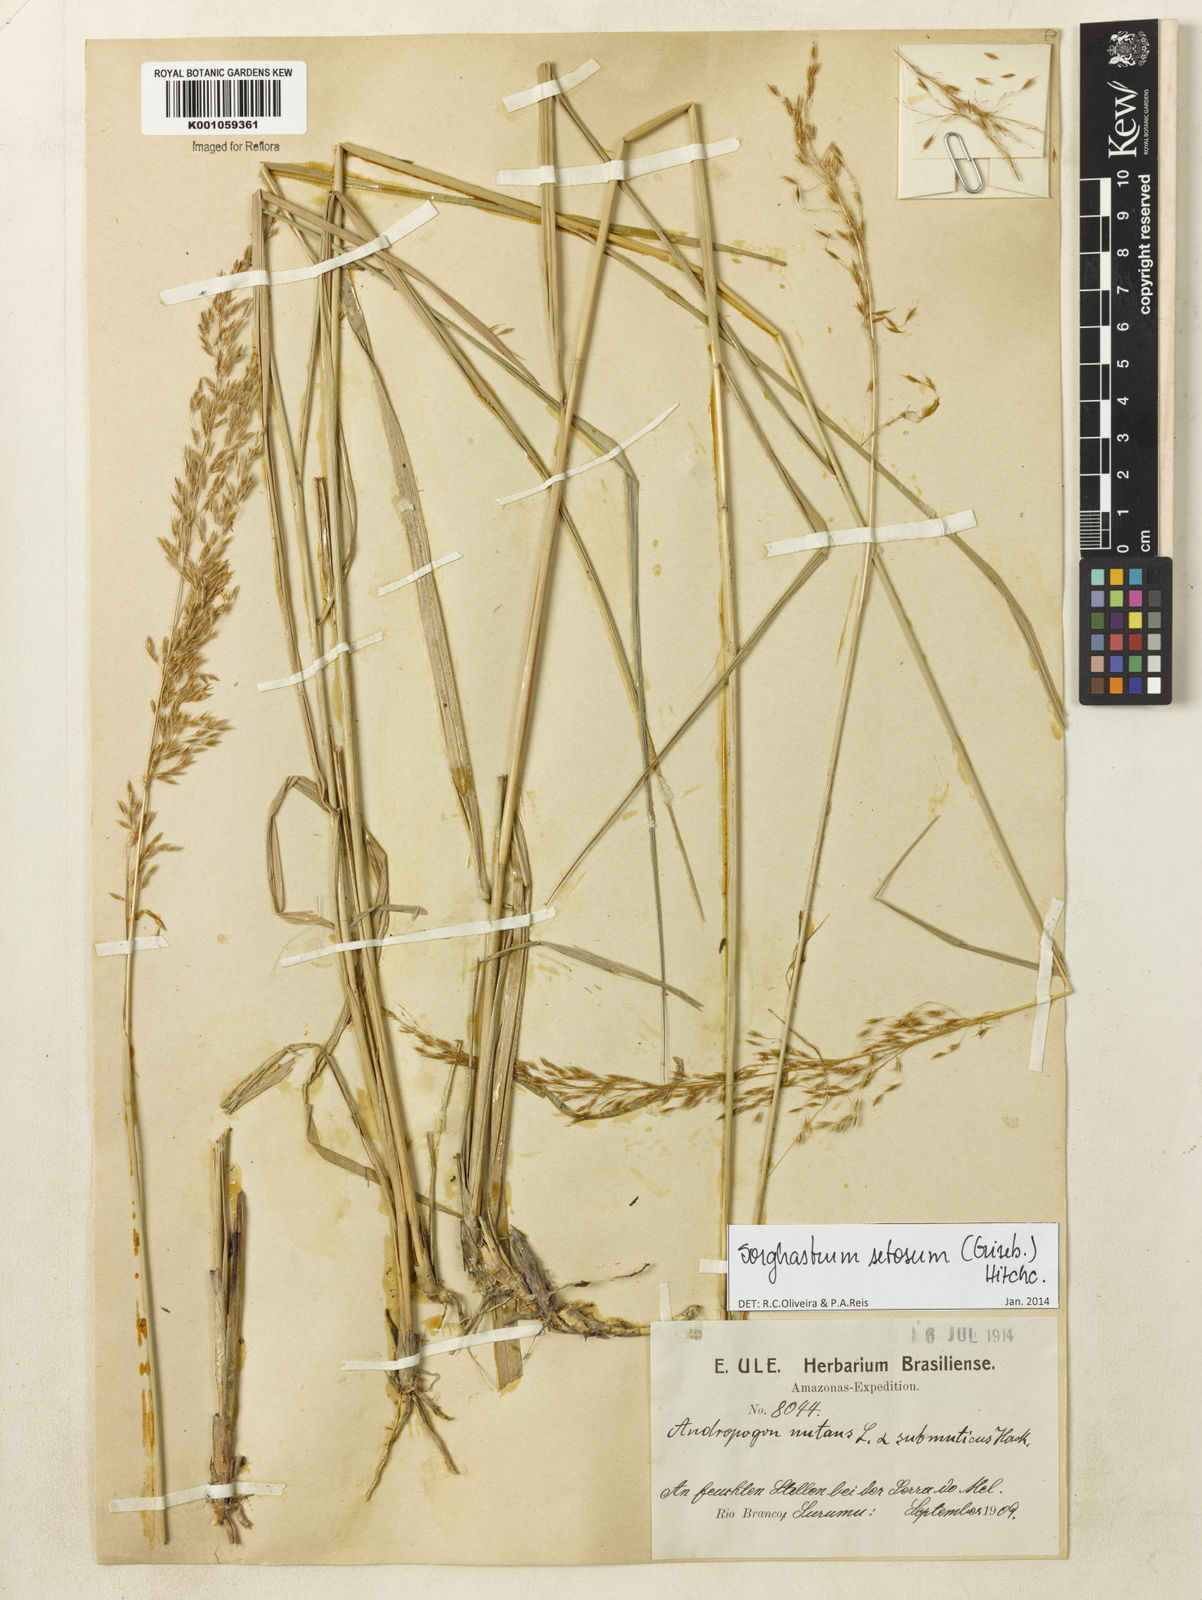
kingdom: Plantae
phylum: Tracheophyta
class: Liliopsida
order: Poales
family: Poaceae
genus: Sorghastrum
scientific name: Sorghastrum setosum
